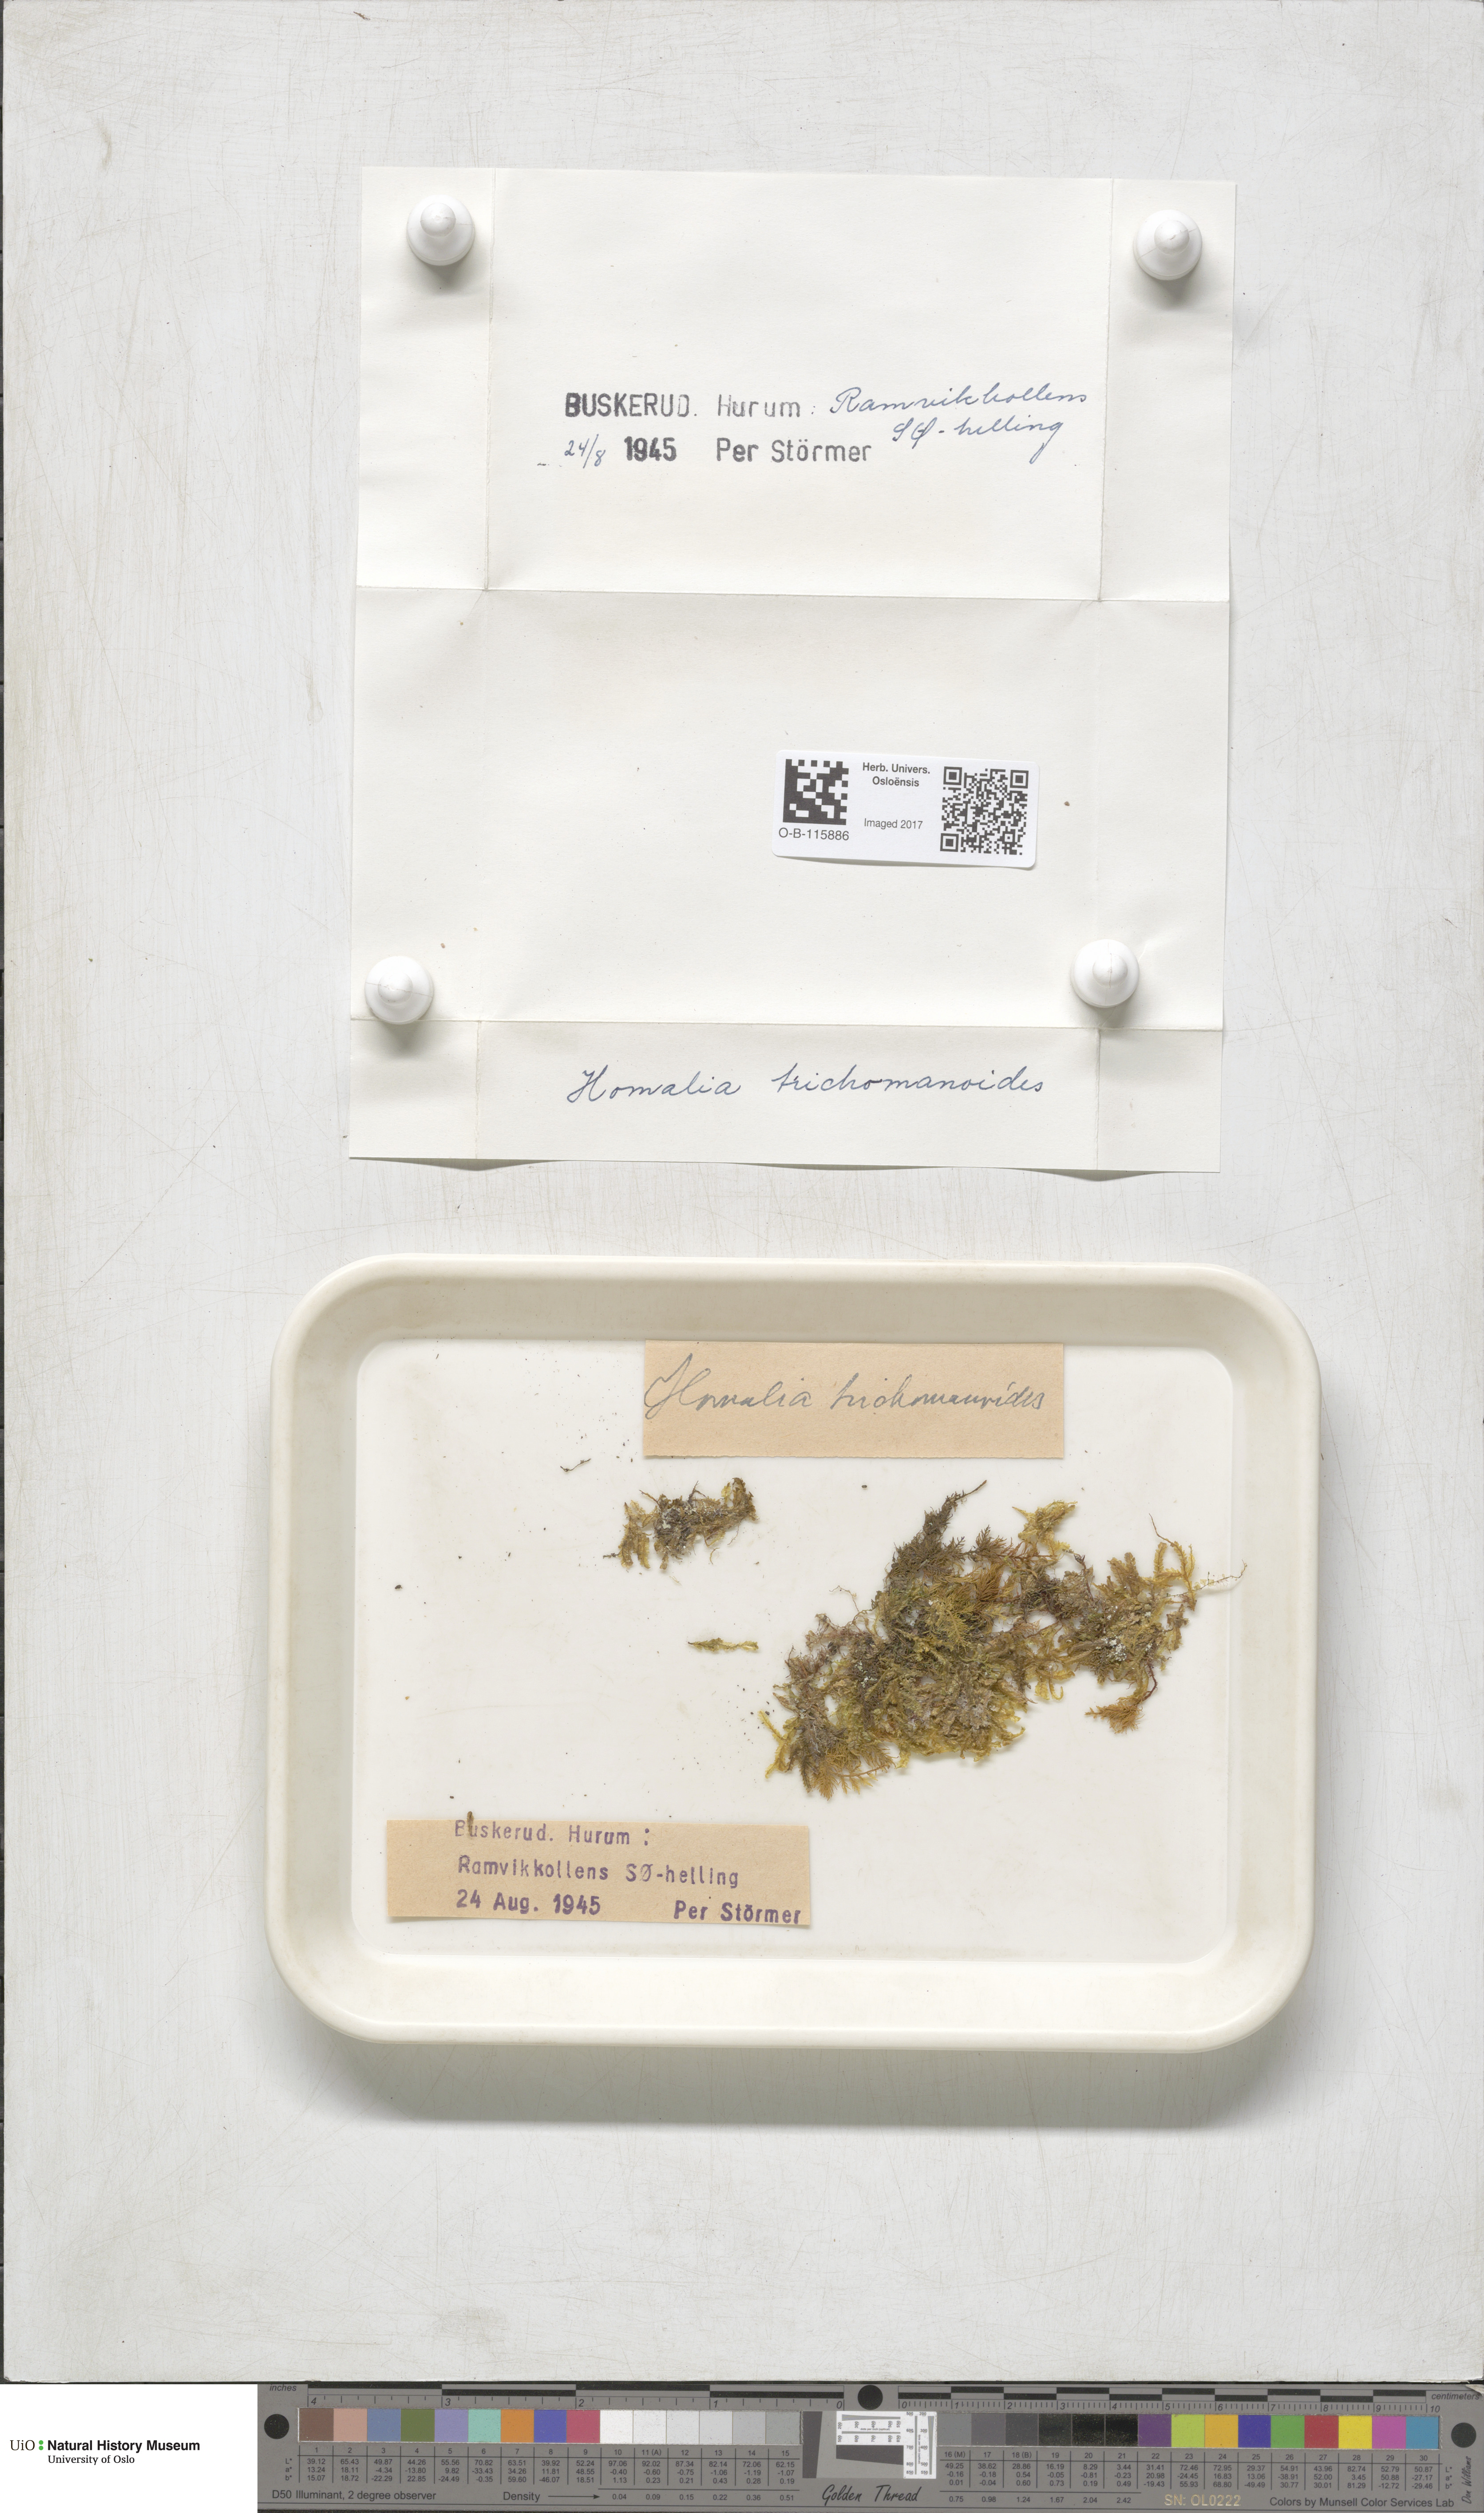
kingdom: Plantae
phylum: Bryophyta
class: Bryopsida
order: Hypnales
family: Neckeraceae
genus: Homalia
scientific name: Homalia trichomanoides
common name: Lime homalia moss
